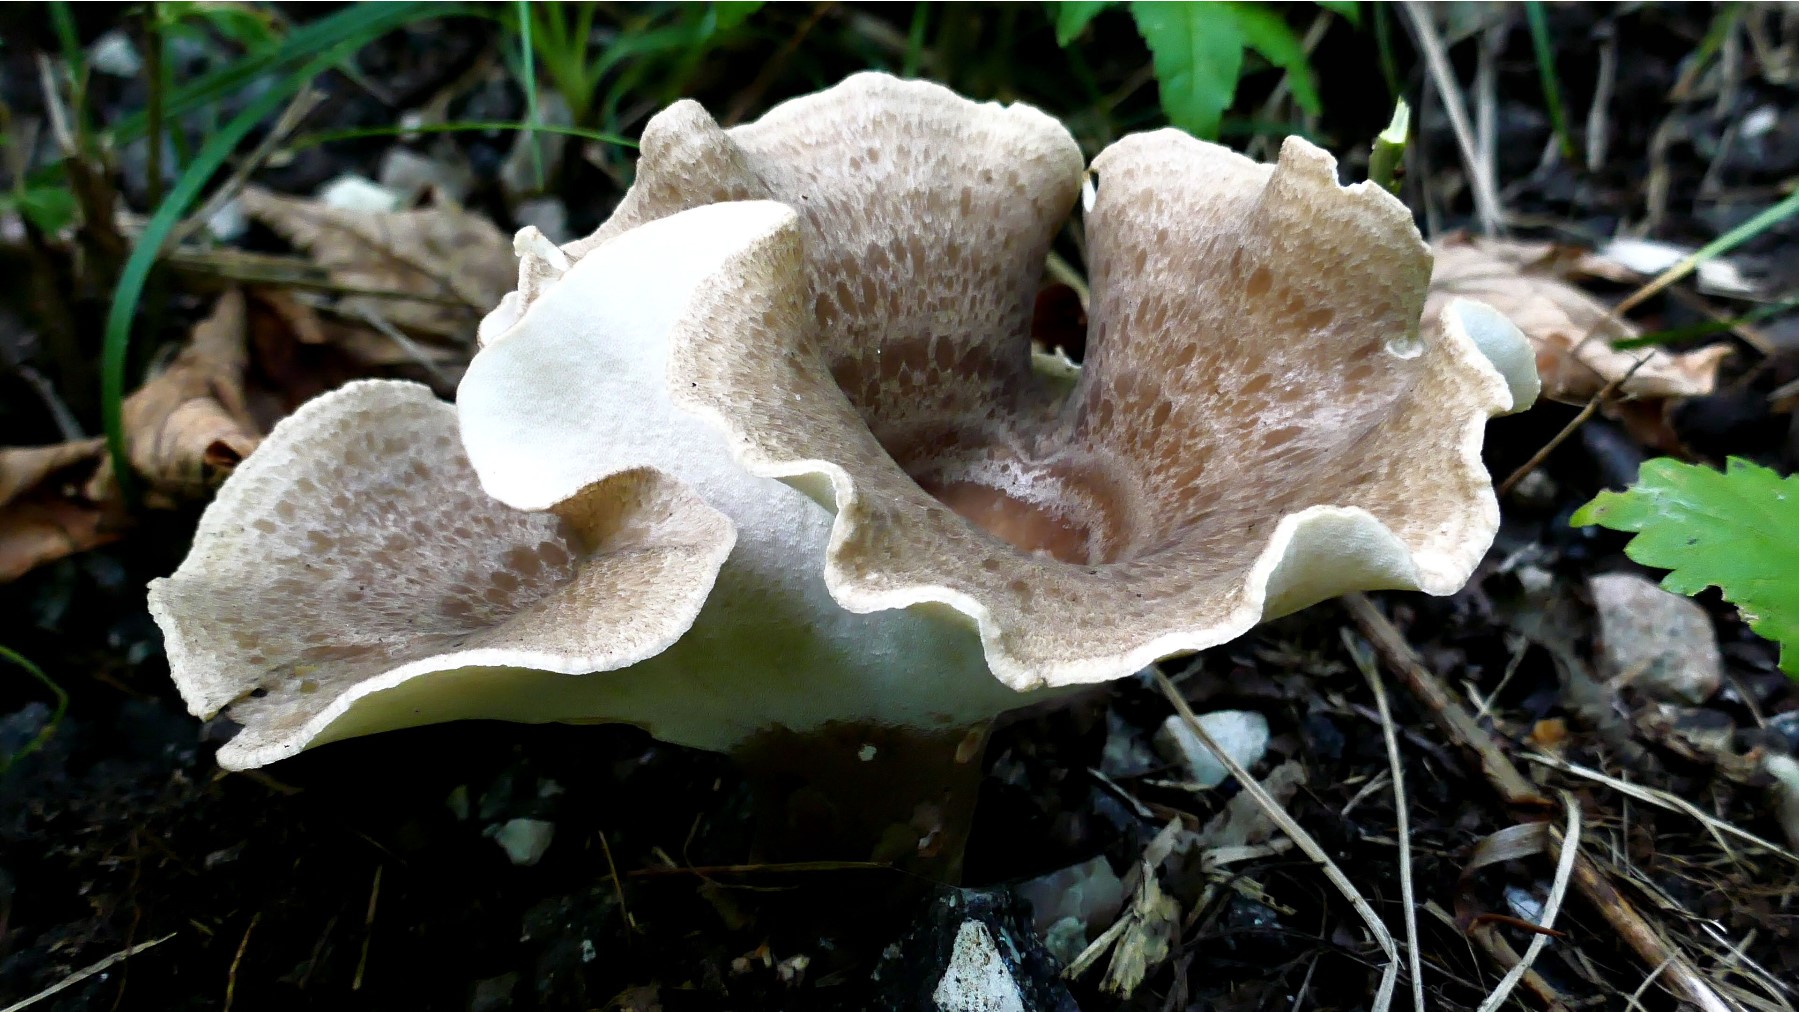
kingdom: Fungi
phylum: Basidiomycota
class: Agaricomycetes
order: Polyporales
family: Polyporaceae
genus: Picipes
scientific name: Picipes melanopus
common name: sortfodet stilkporesvamp
